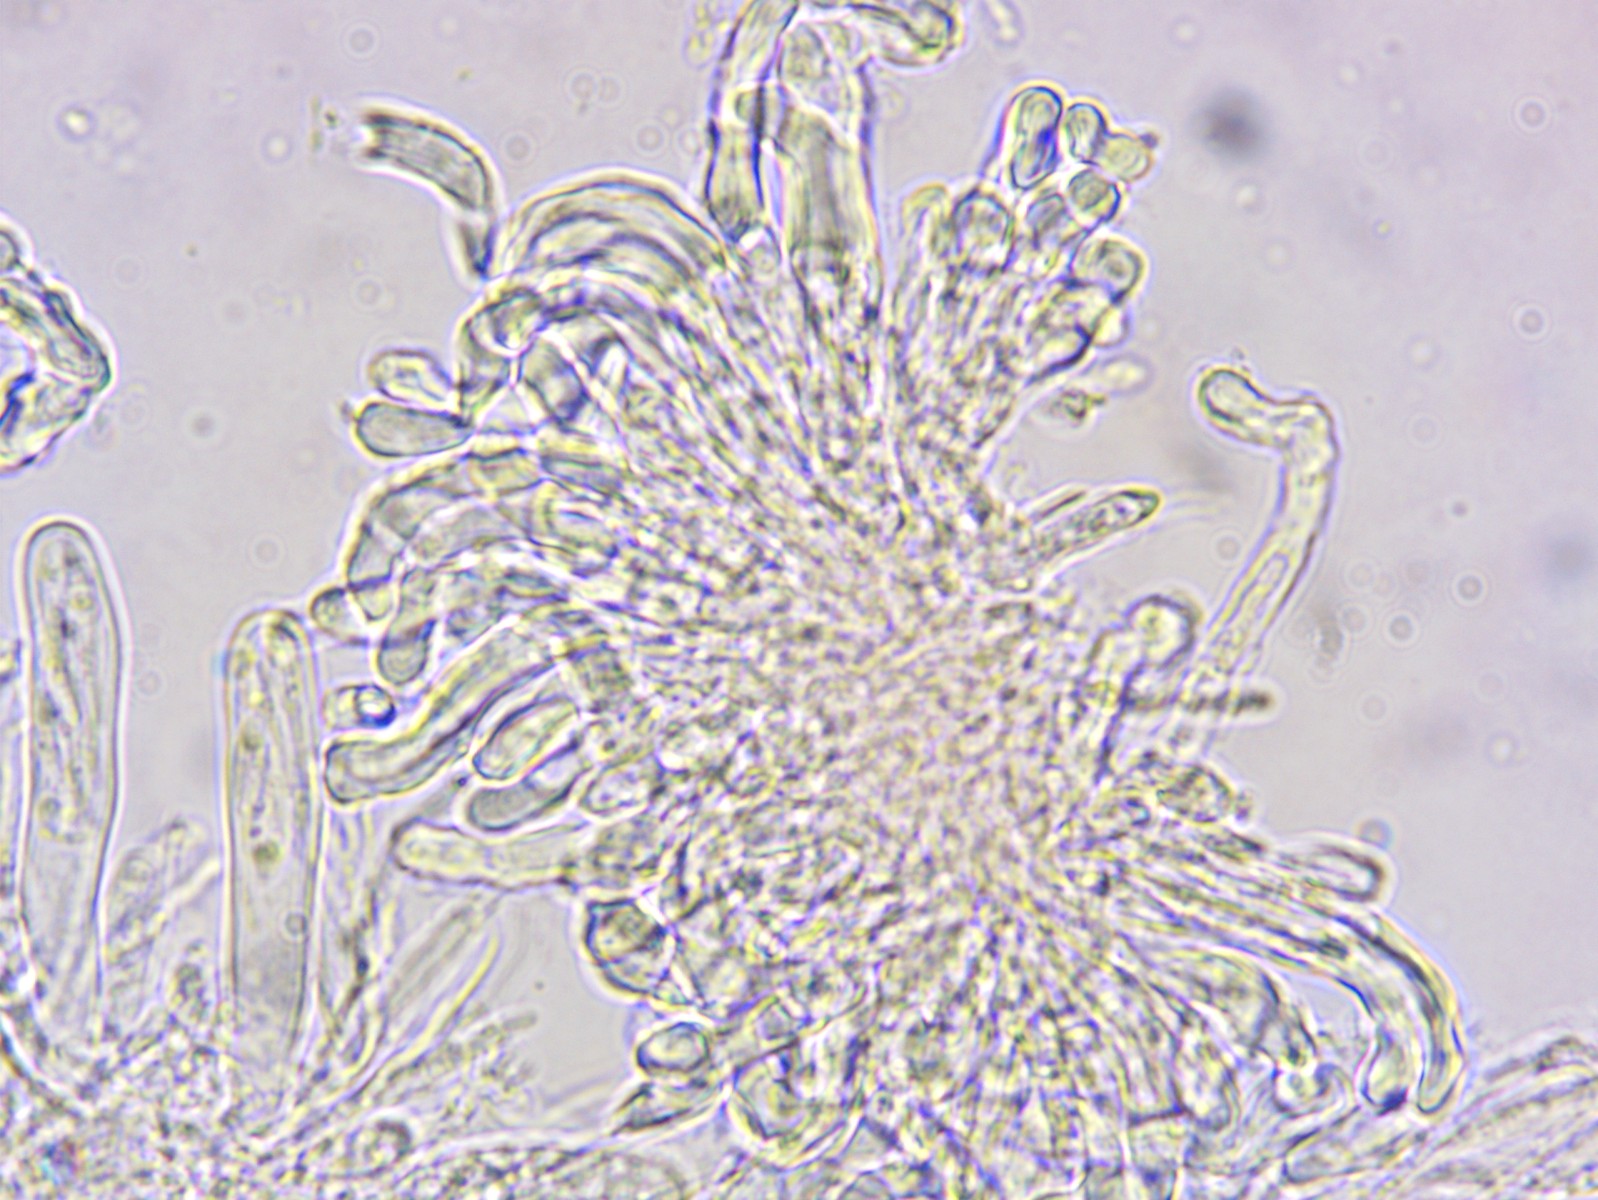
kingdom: Fungi
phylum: Ascomycota
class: Orbiliomycetes
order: Orbiliales
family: Orbiliaceae
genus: Orbilia
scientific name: Orbilia pseudoaristata
